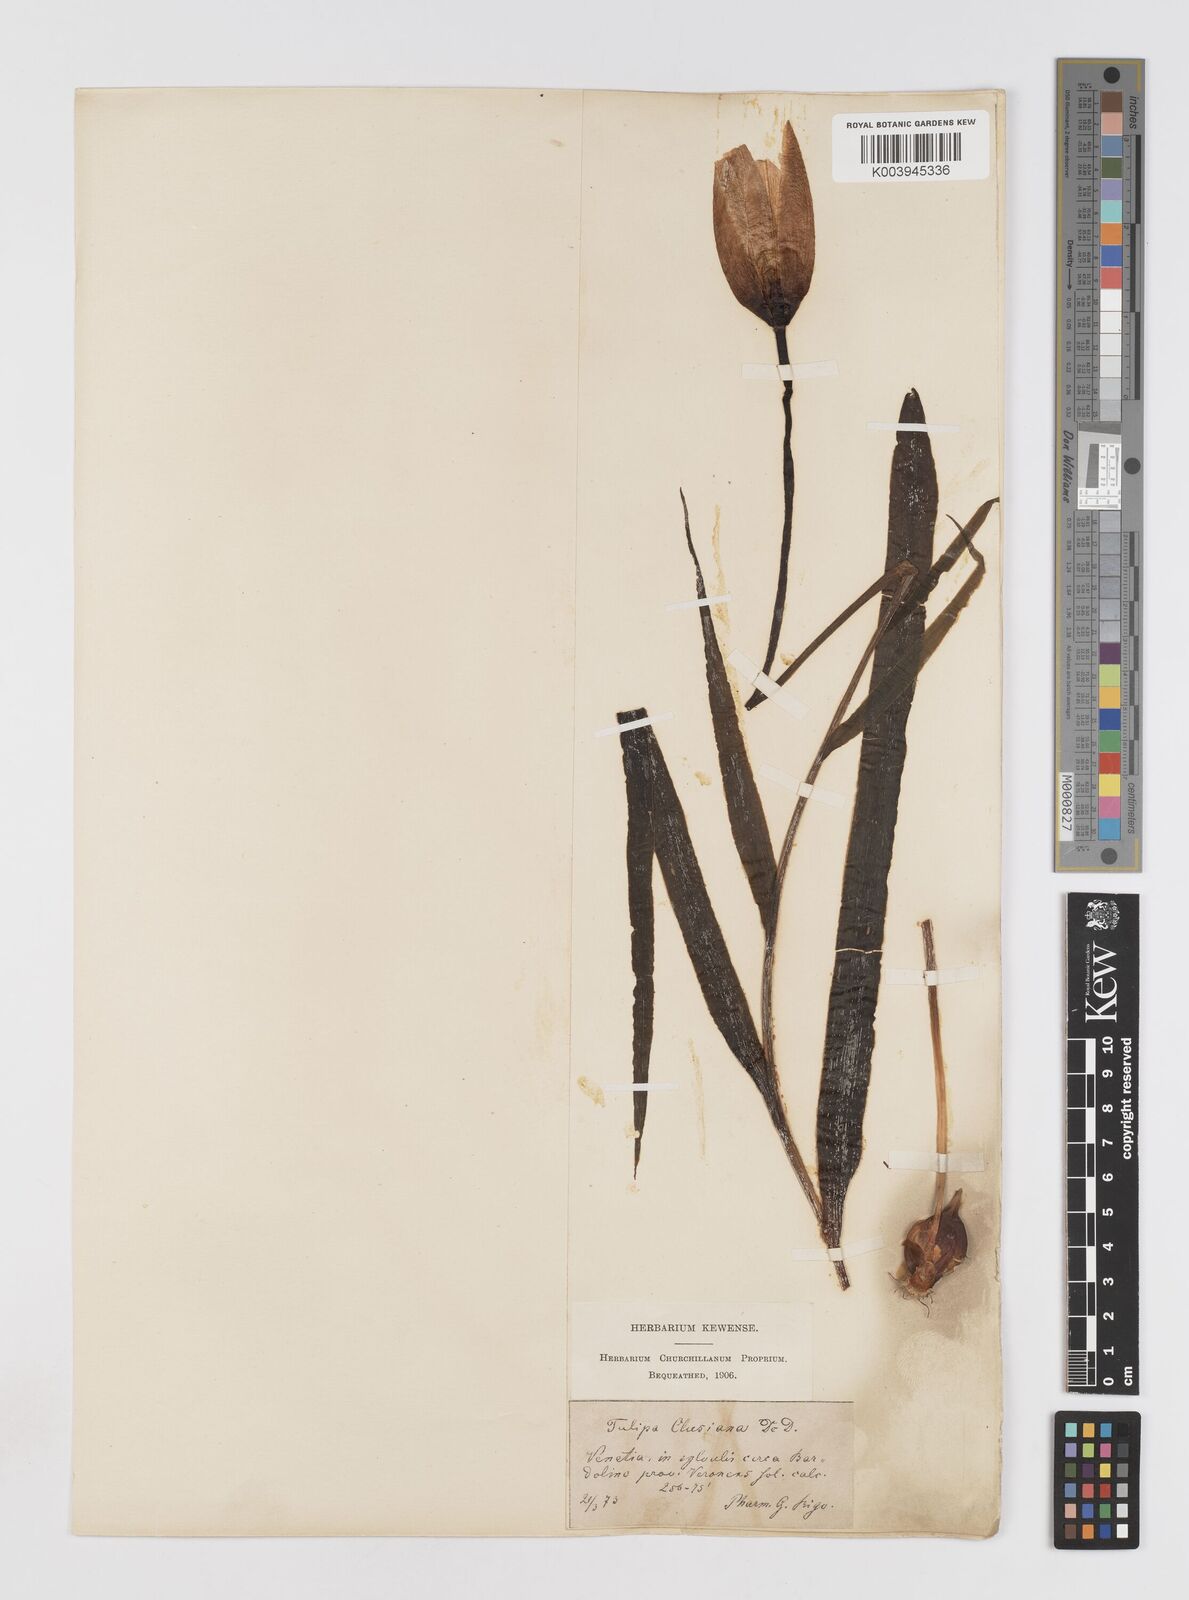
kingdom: Plantae
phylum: Tracheophyta
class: Liliopsida
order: Liliales
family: Liliaceae
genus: Tulipa
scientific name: Tulipa clusiana
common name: Lady tulip
